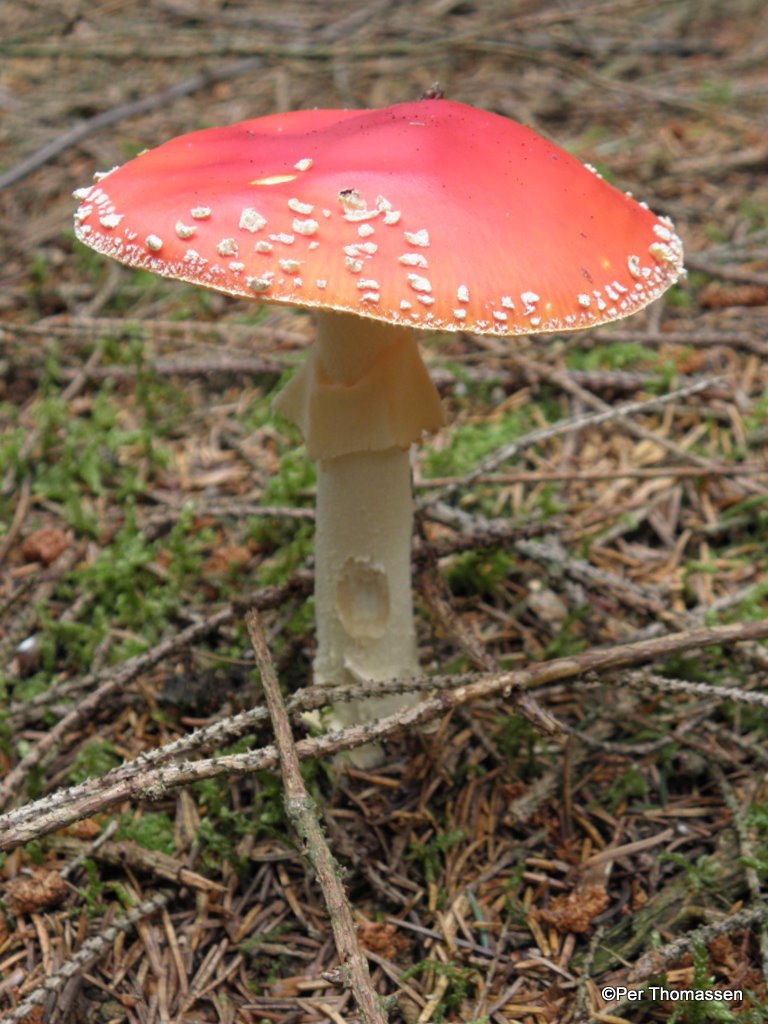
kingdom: Fungi
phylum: Basidiomycota
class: Agaricomycetes
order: Agaricales
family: Amanitaceae
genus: Amanita
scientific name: Amanita muscaria
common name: rød fluesvamp
